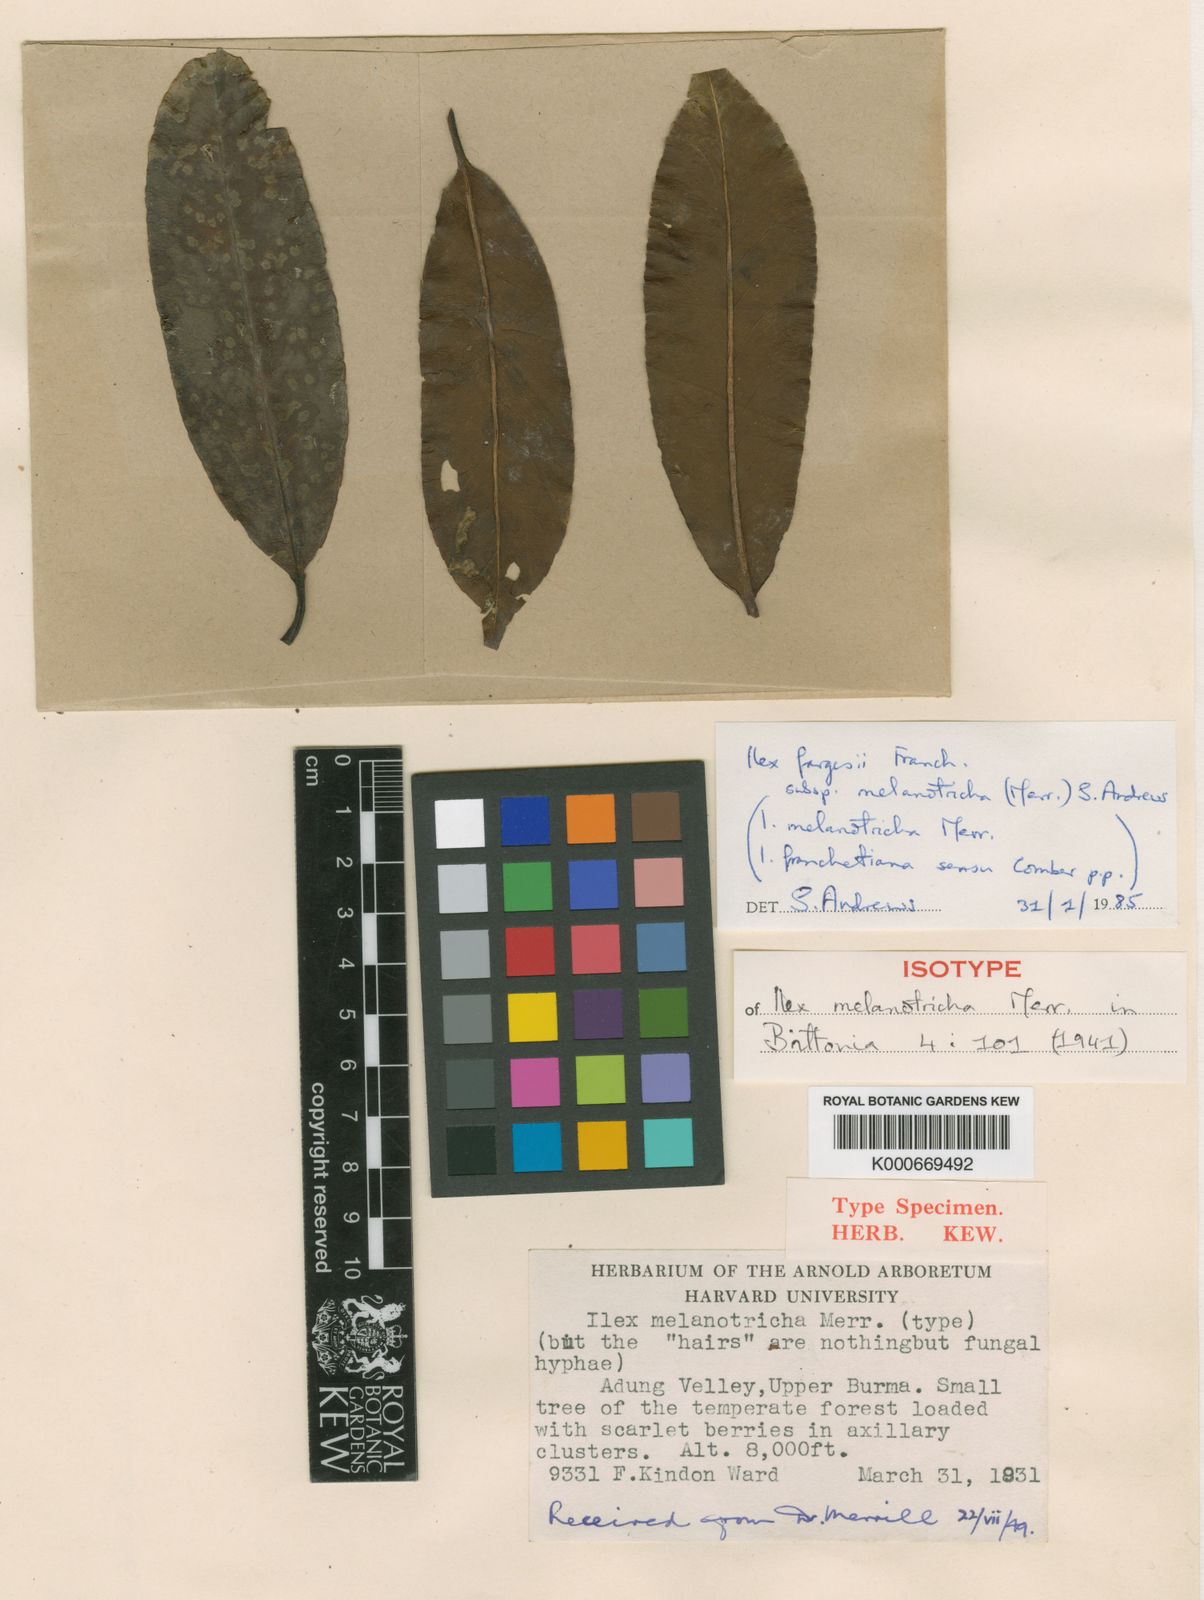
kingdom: Plantae
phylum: Tracheophyta
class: Magnoliopsida
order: Aquifoliales
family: Aquifoliaceae
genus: Ilex
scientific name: Ilex fargesii
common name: Farges’s holly
